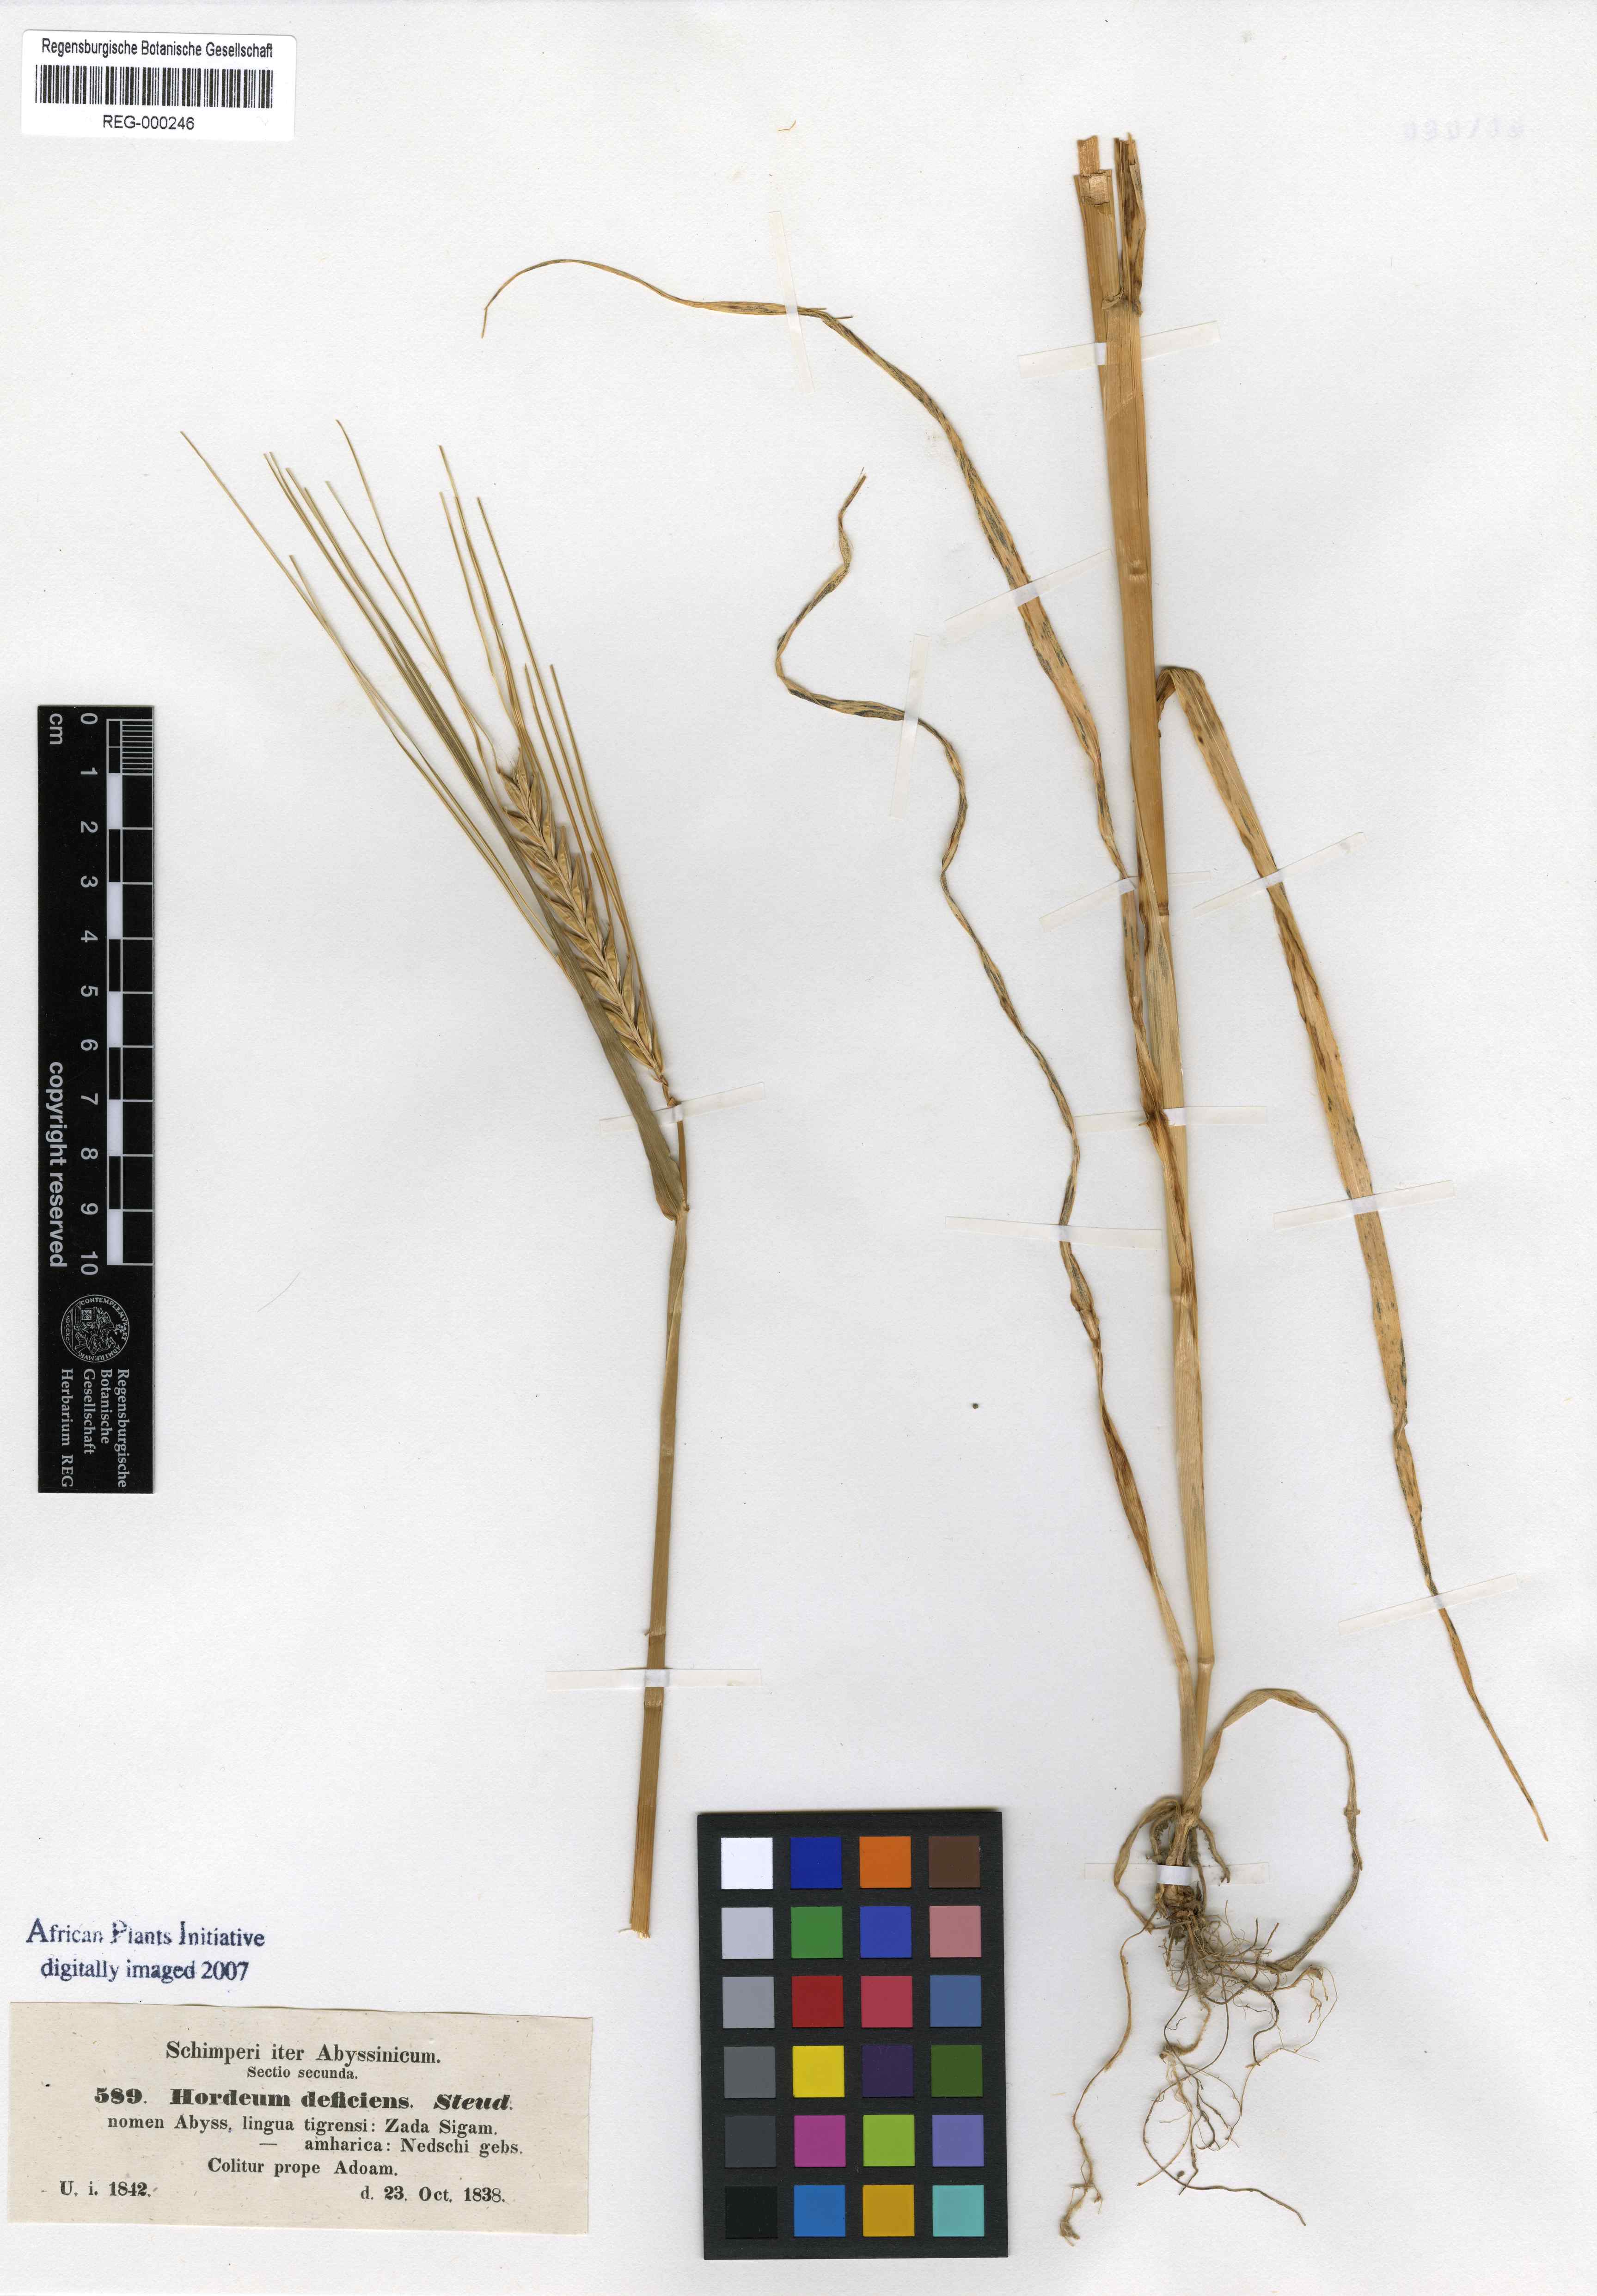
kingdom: Plantae
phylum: Tracheophyta
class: Liliopsida
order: Poales
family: Poaceae
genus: Hordeum
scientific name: Hordeum distichon
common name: Two-rowed barley
